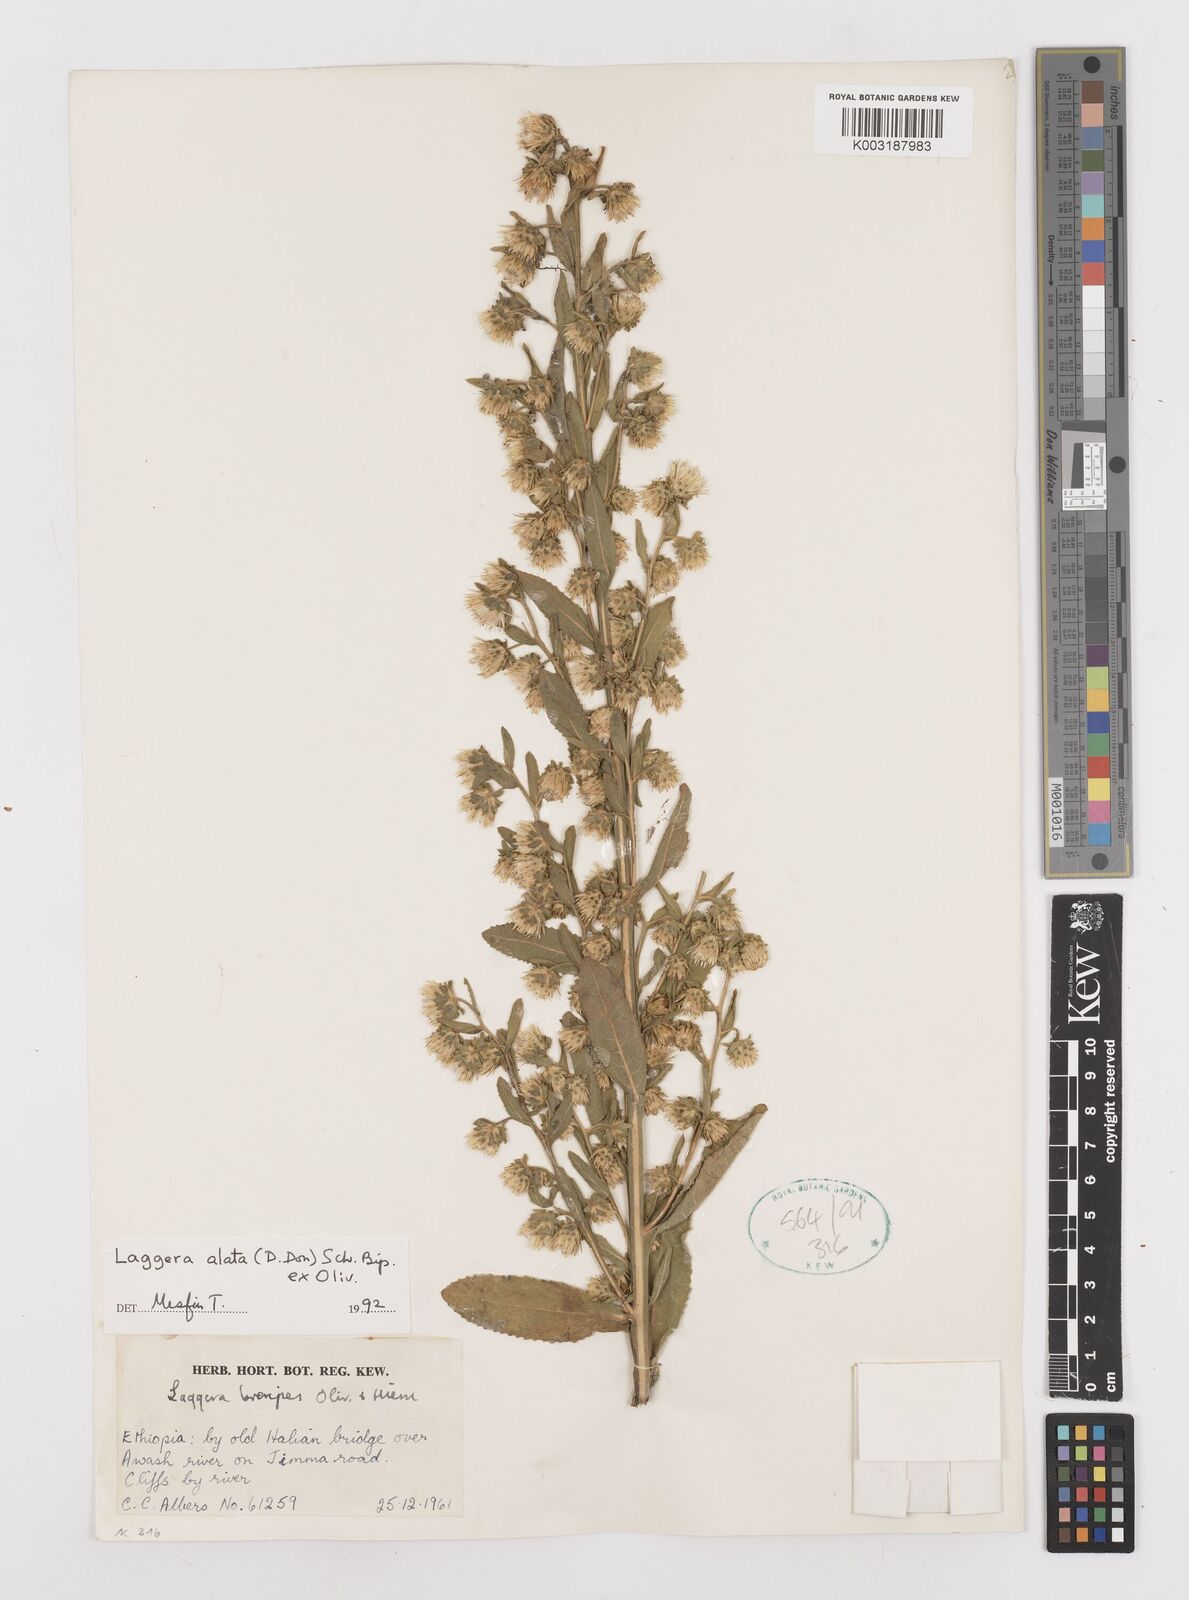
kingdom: Plantae
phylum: Tracheophyta
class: Magnoliopsida
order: Asterales
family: Asteraceae
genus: Laggera
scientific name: Laggera crispata
